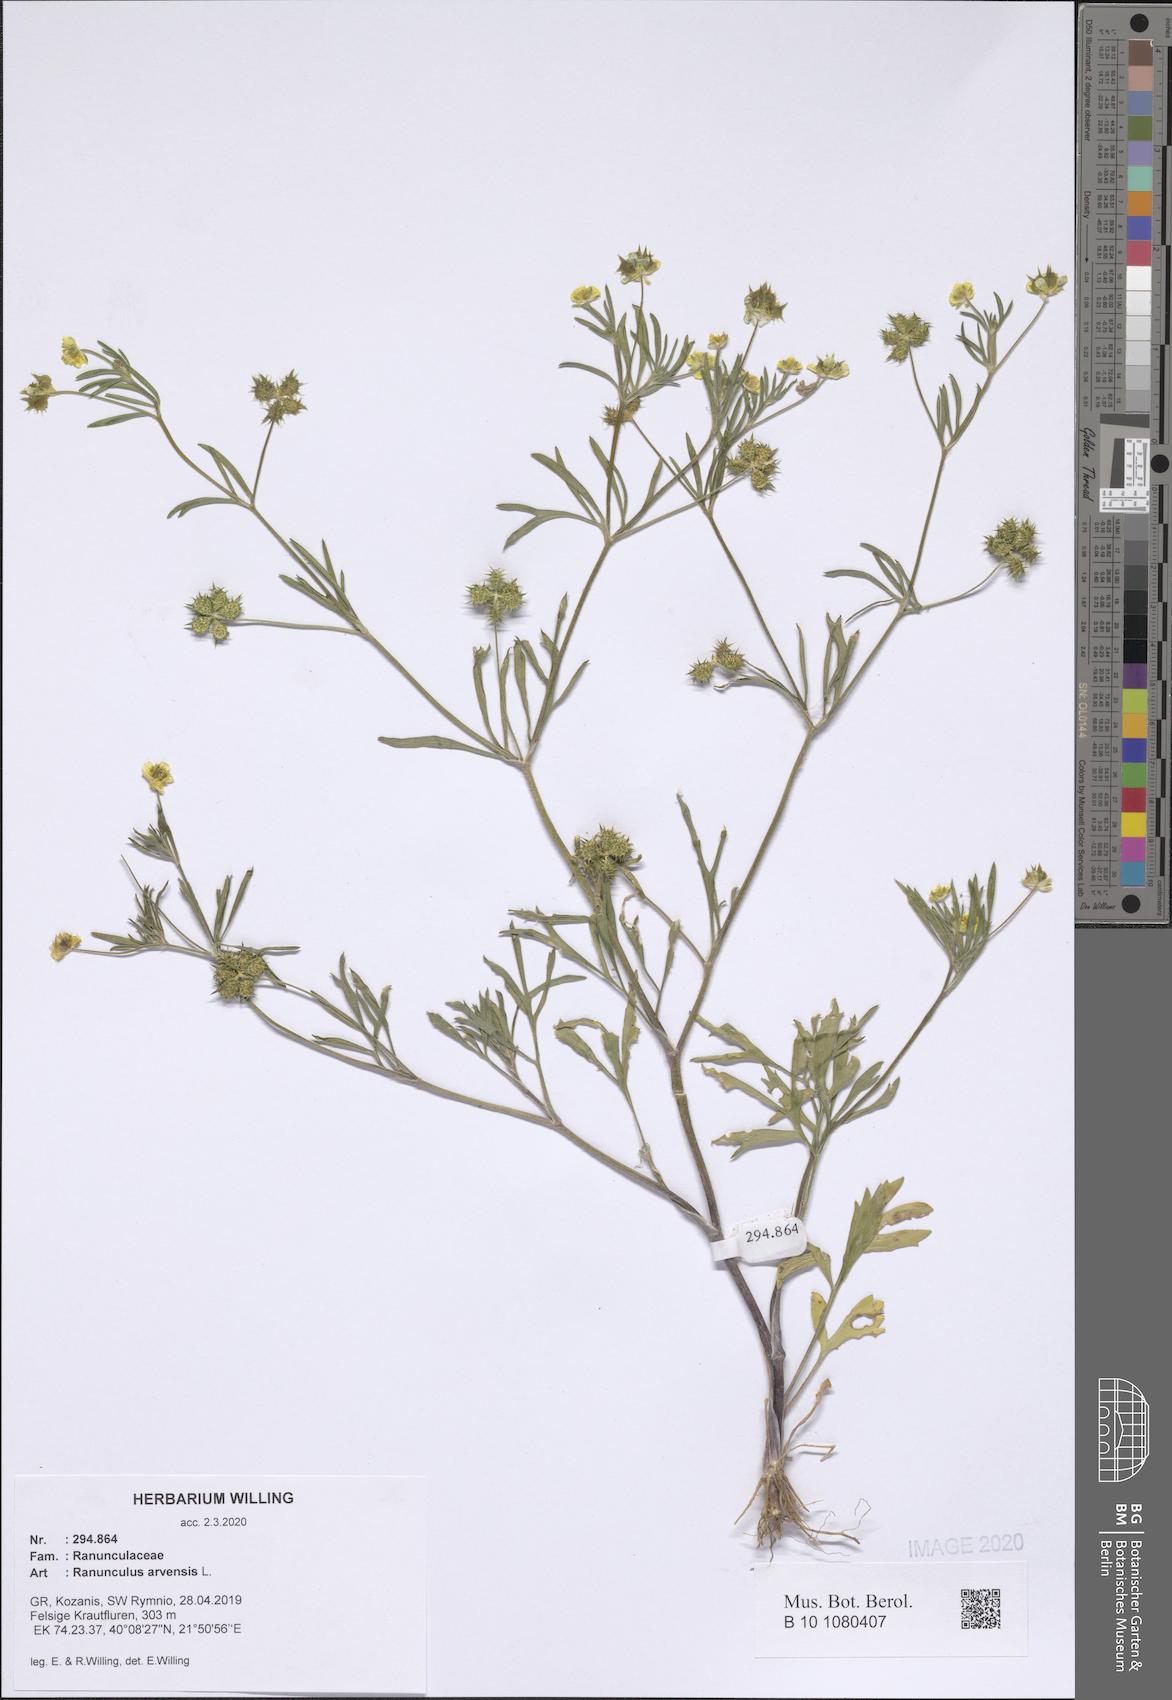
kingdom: Plantae
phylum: Tracheophyta
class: Magnoliopsida
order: Ranunculales
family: Ranunculaceae
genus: Ranunculus
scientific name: Ranunculus arvensis
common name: Corn buttercup
